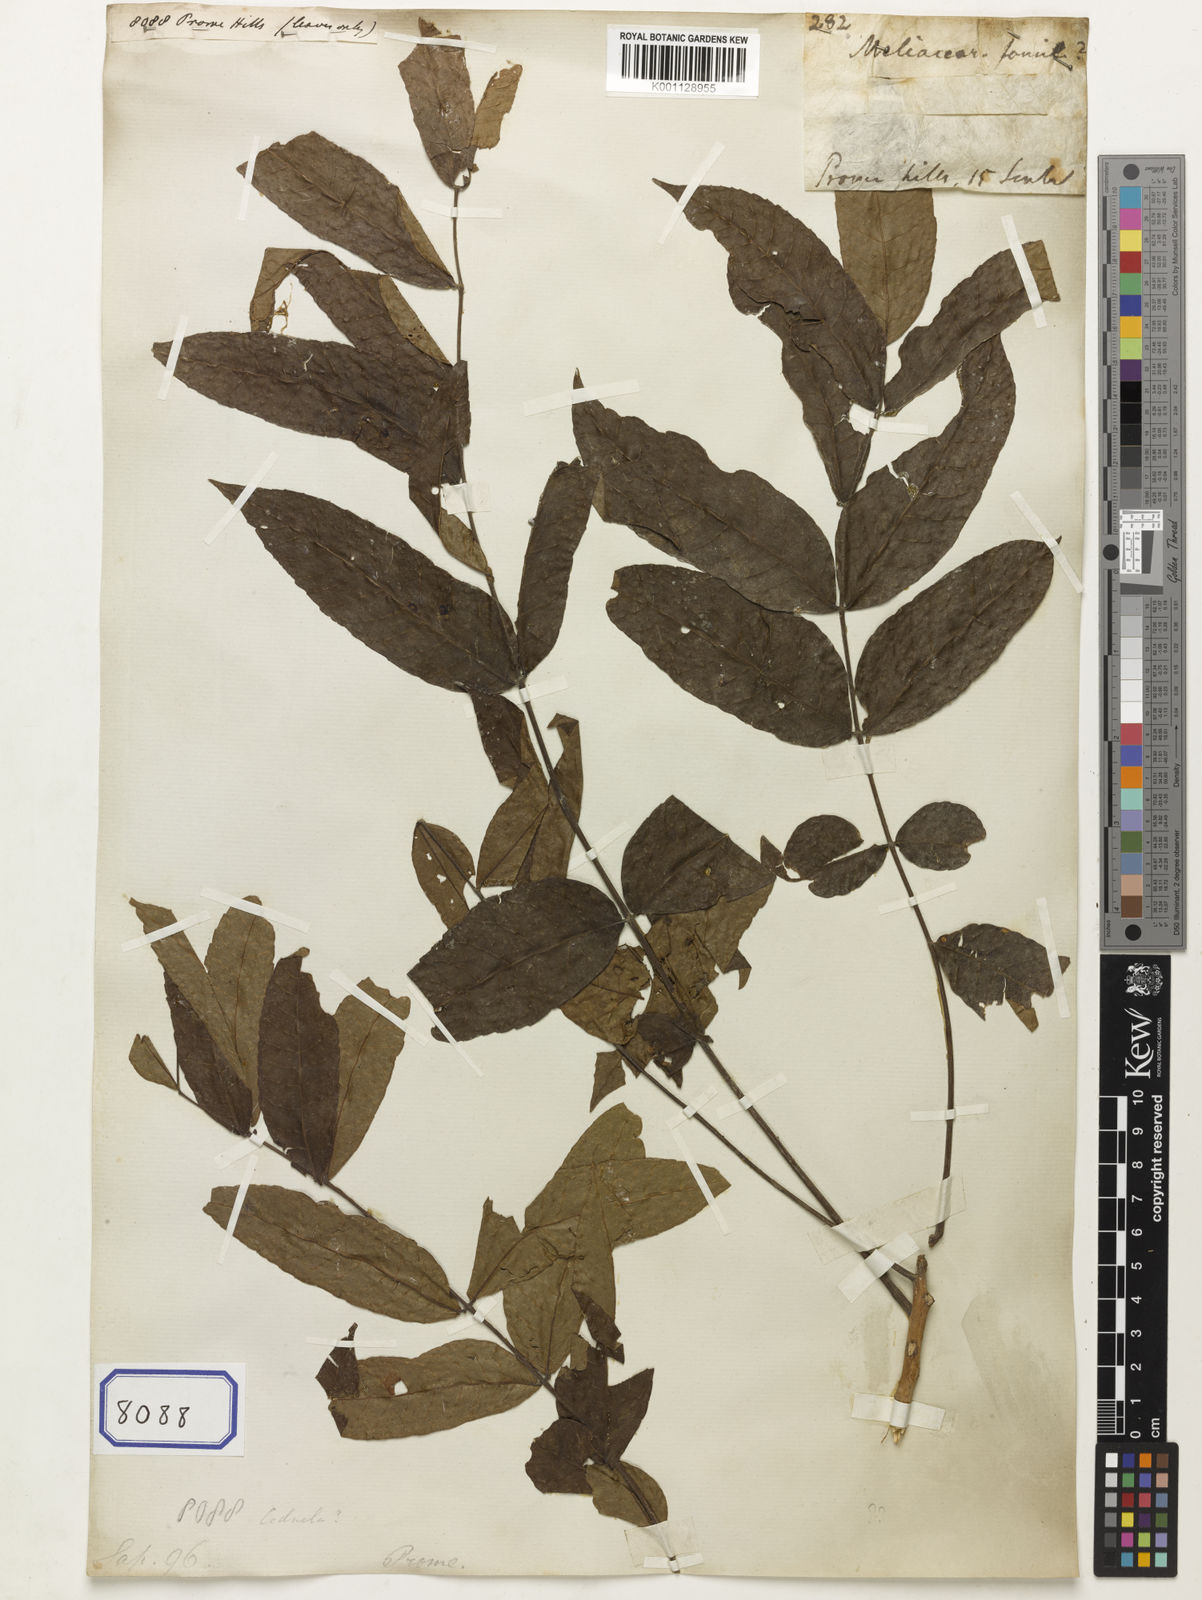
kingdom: Plantae
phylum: Tracheophyta
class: Magnoliopsida
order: Sapindales
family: Sapindaceae
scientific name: Sapindaceae
